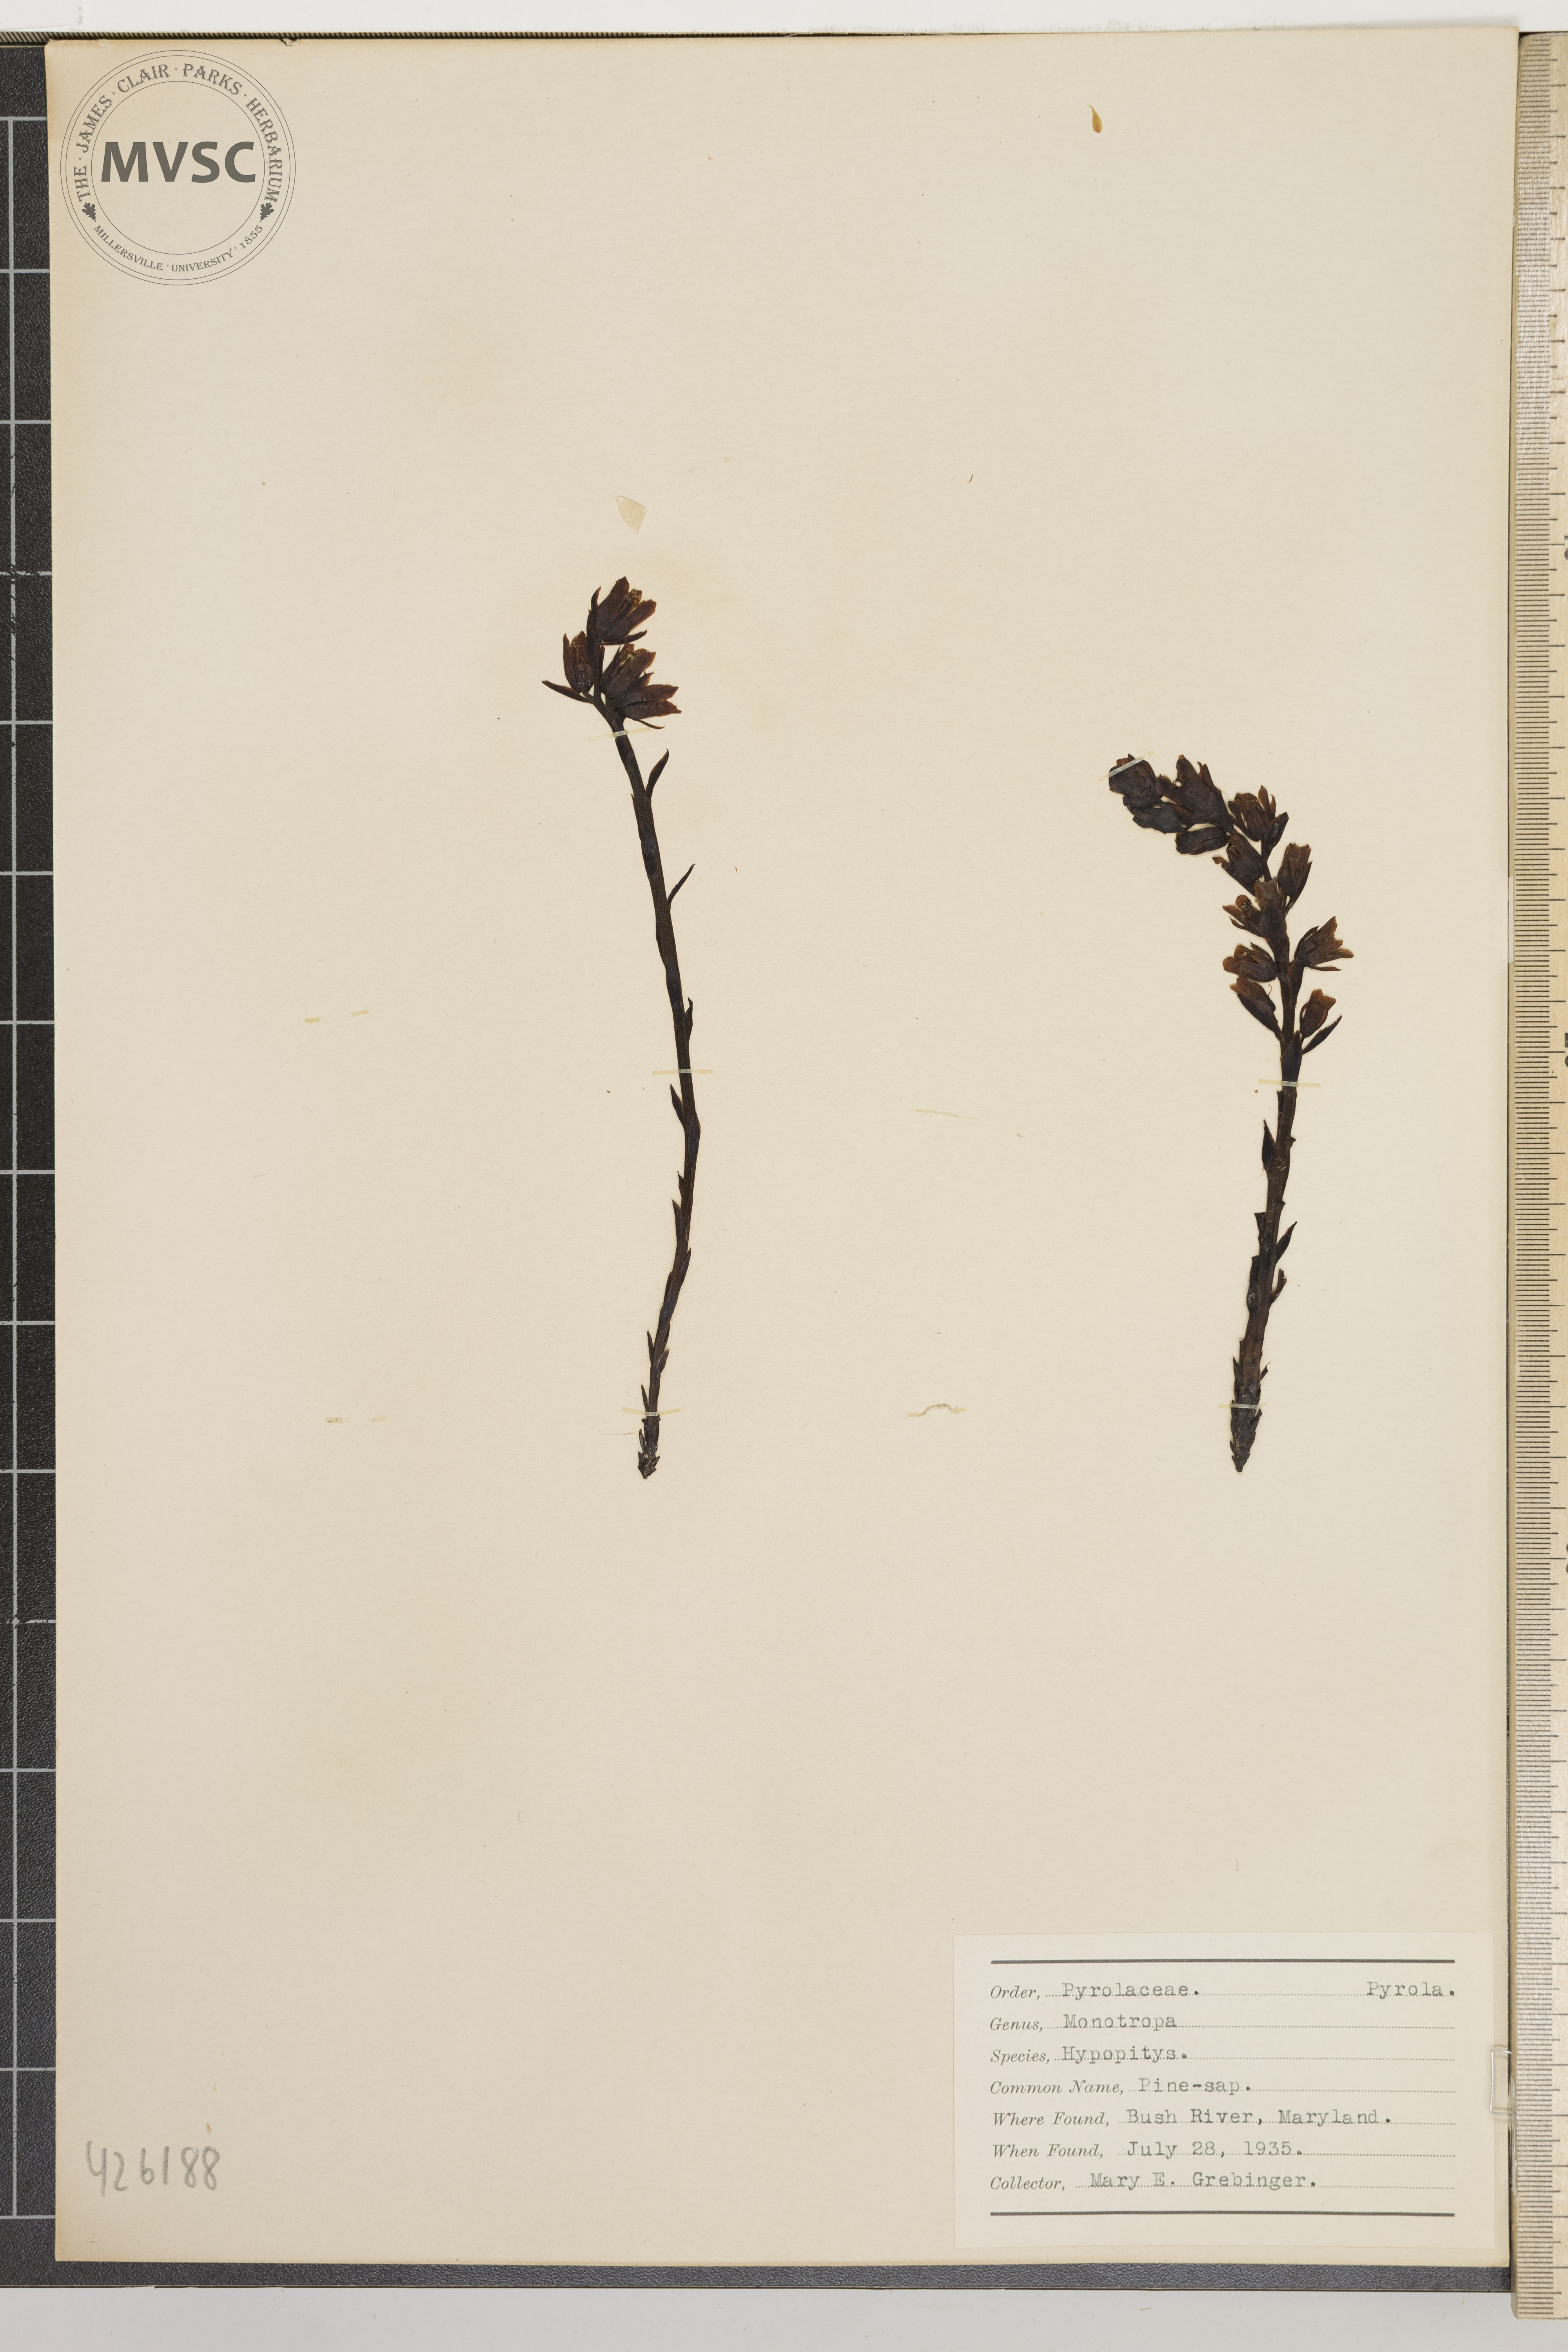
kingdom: Plantae
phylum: Tracheophyta
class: Magnoliopsida
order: Ericales
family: Ericaceae
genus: Hypopitys
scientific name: Hypopitys monotropa
